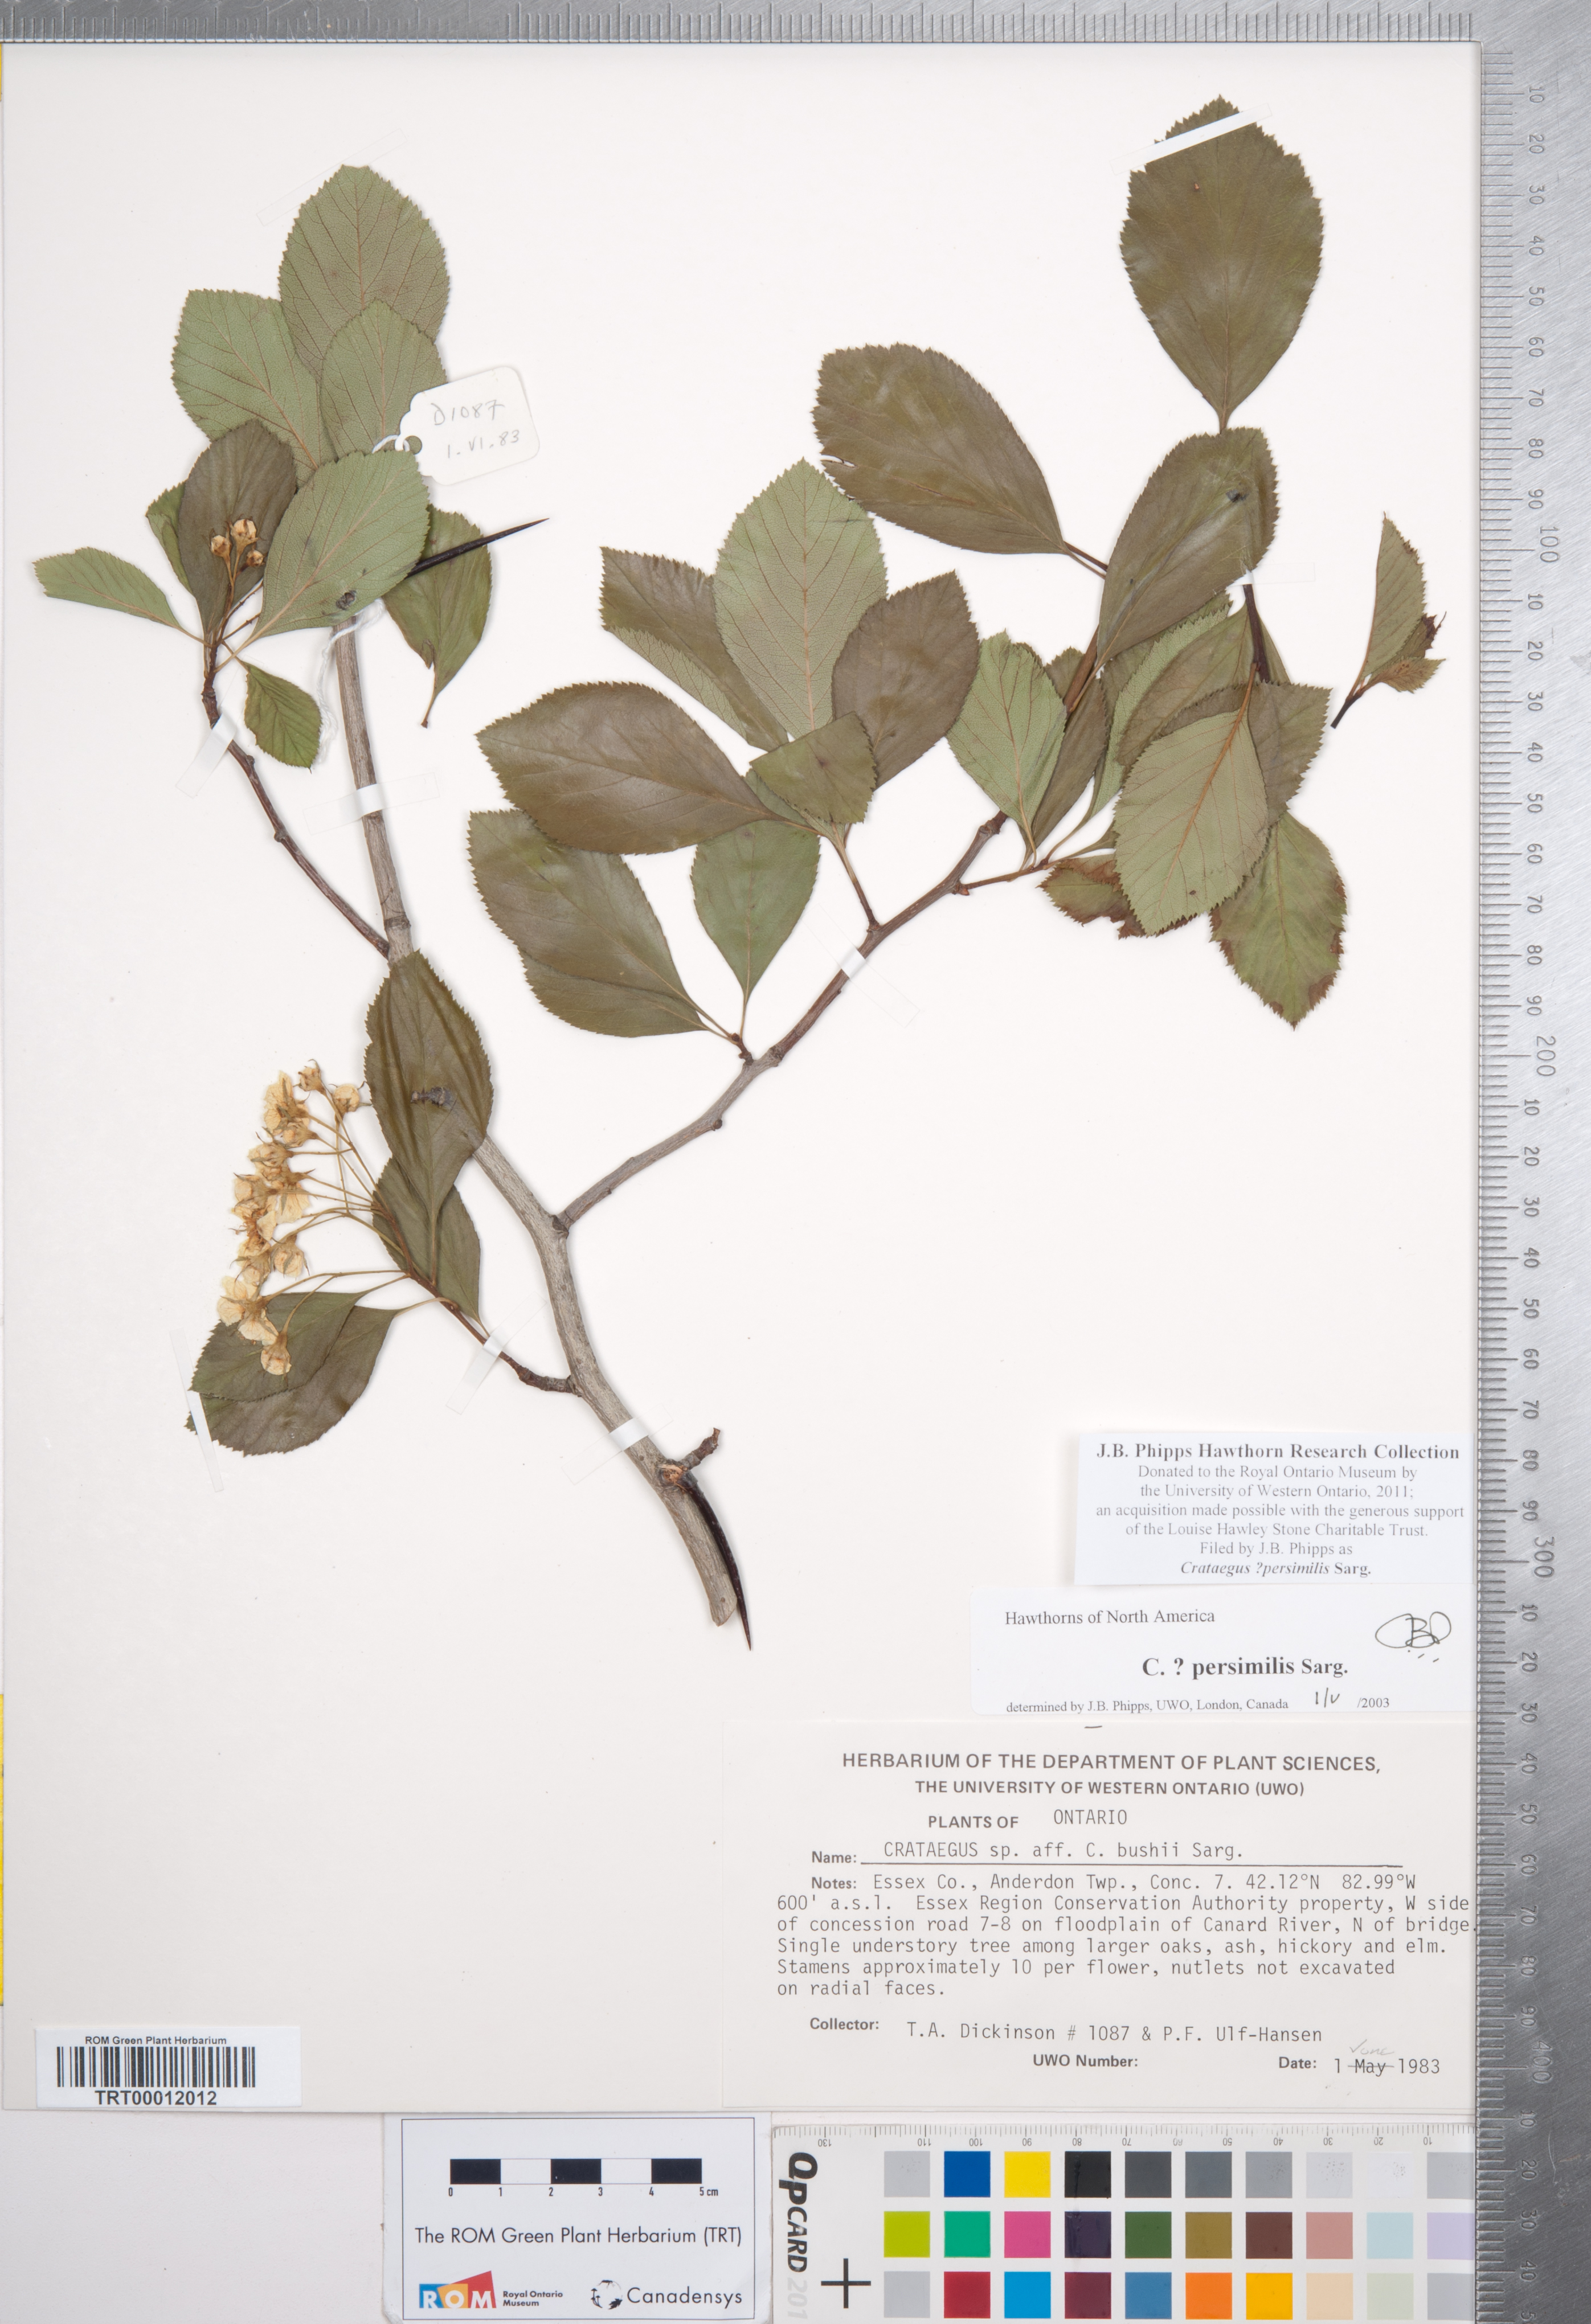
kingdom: Plantae
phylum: Tracheophyta
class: Magnoliopsida
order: Rosales
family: Rosaceae
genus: Crataegus
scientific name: Crataegus persimilis
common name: Broad-leaved cockspurthorn
